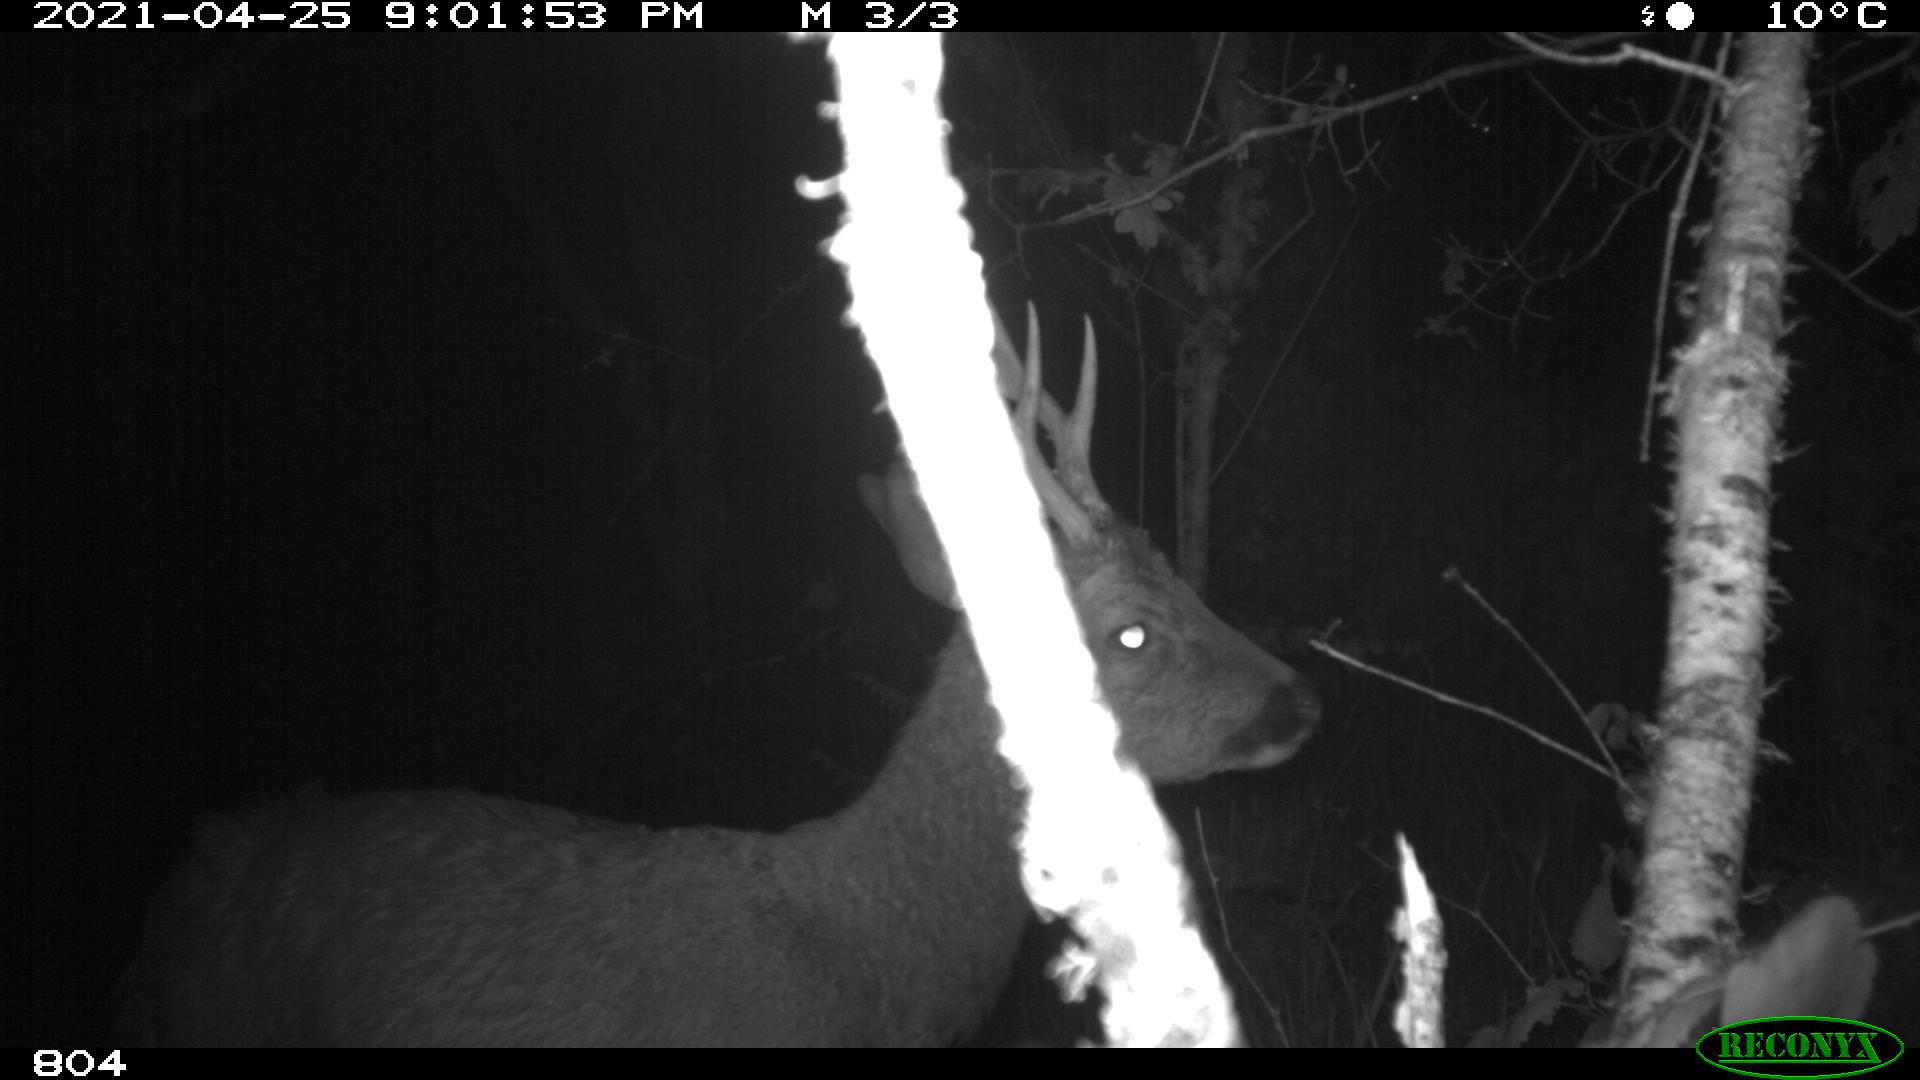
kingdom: Animalia
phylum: Chordata
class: Mammalia
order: Artiodactyla
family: Cervidae
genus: Capreolus
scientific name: Capreolus capreolus
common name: Western roe deer
